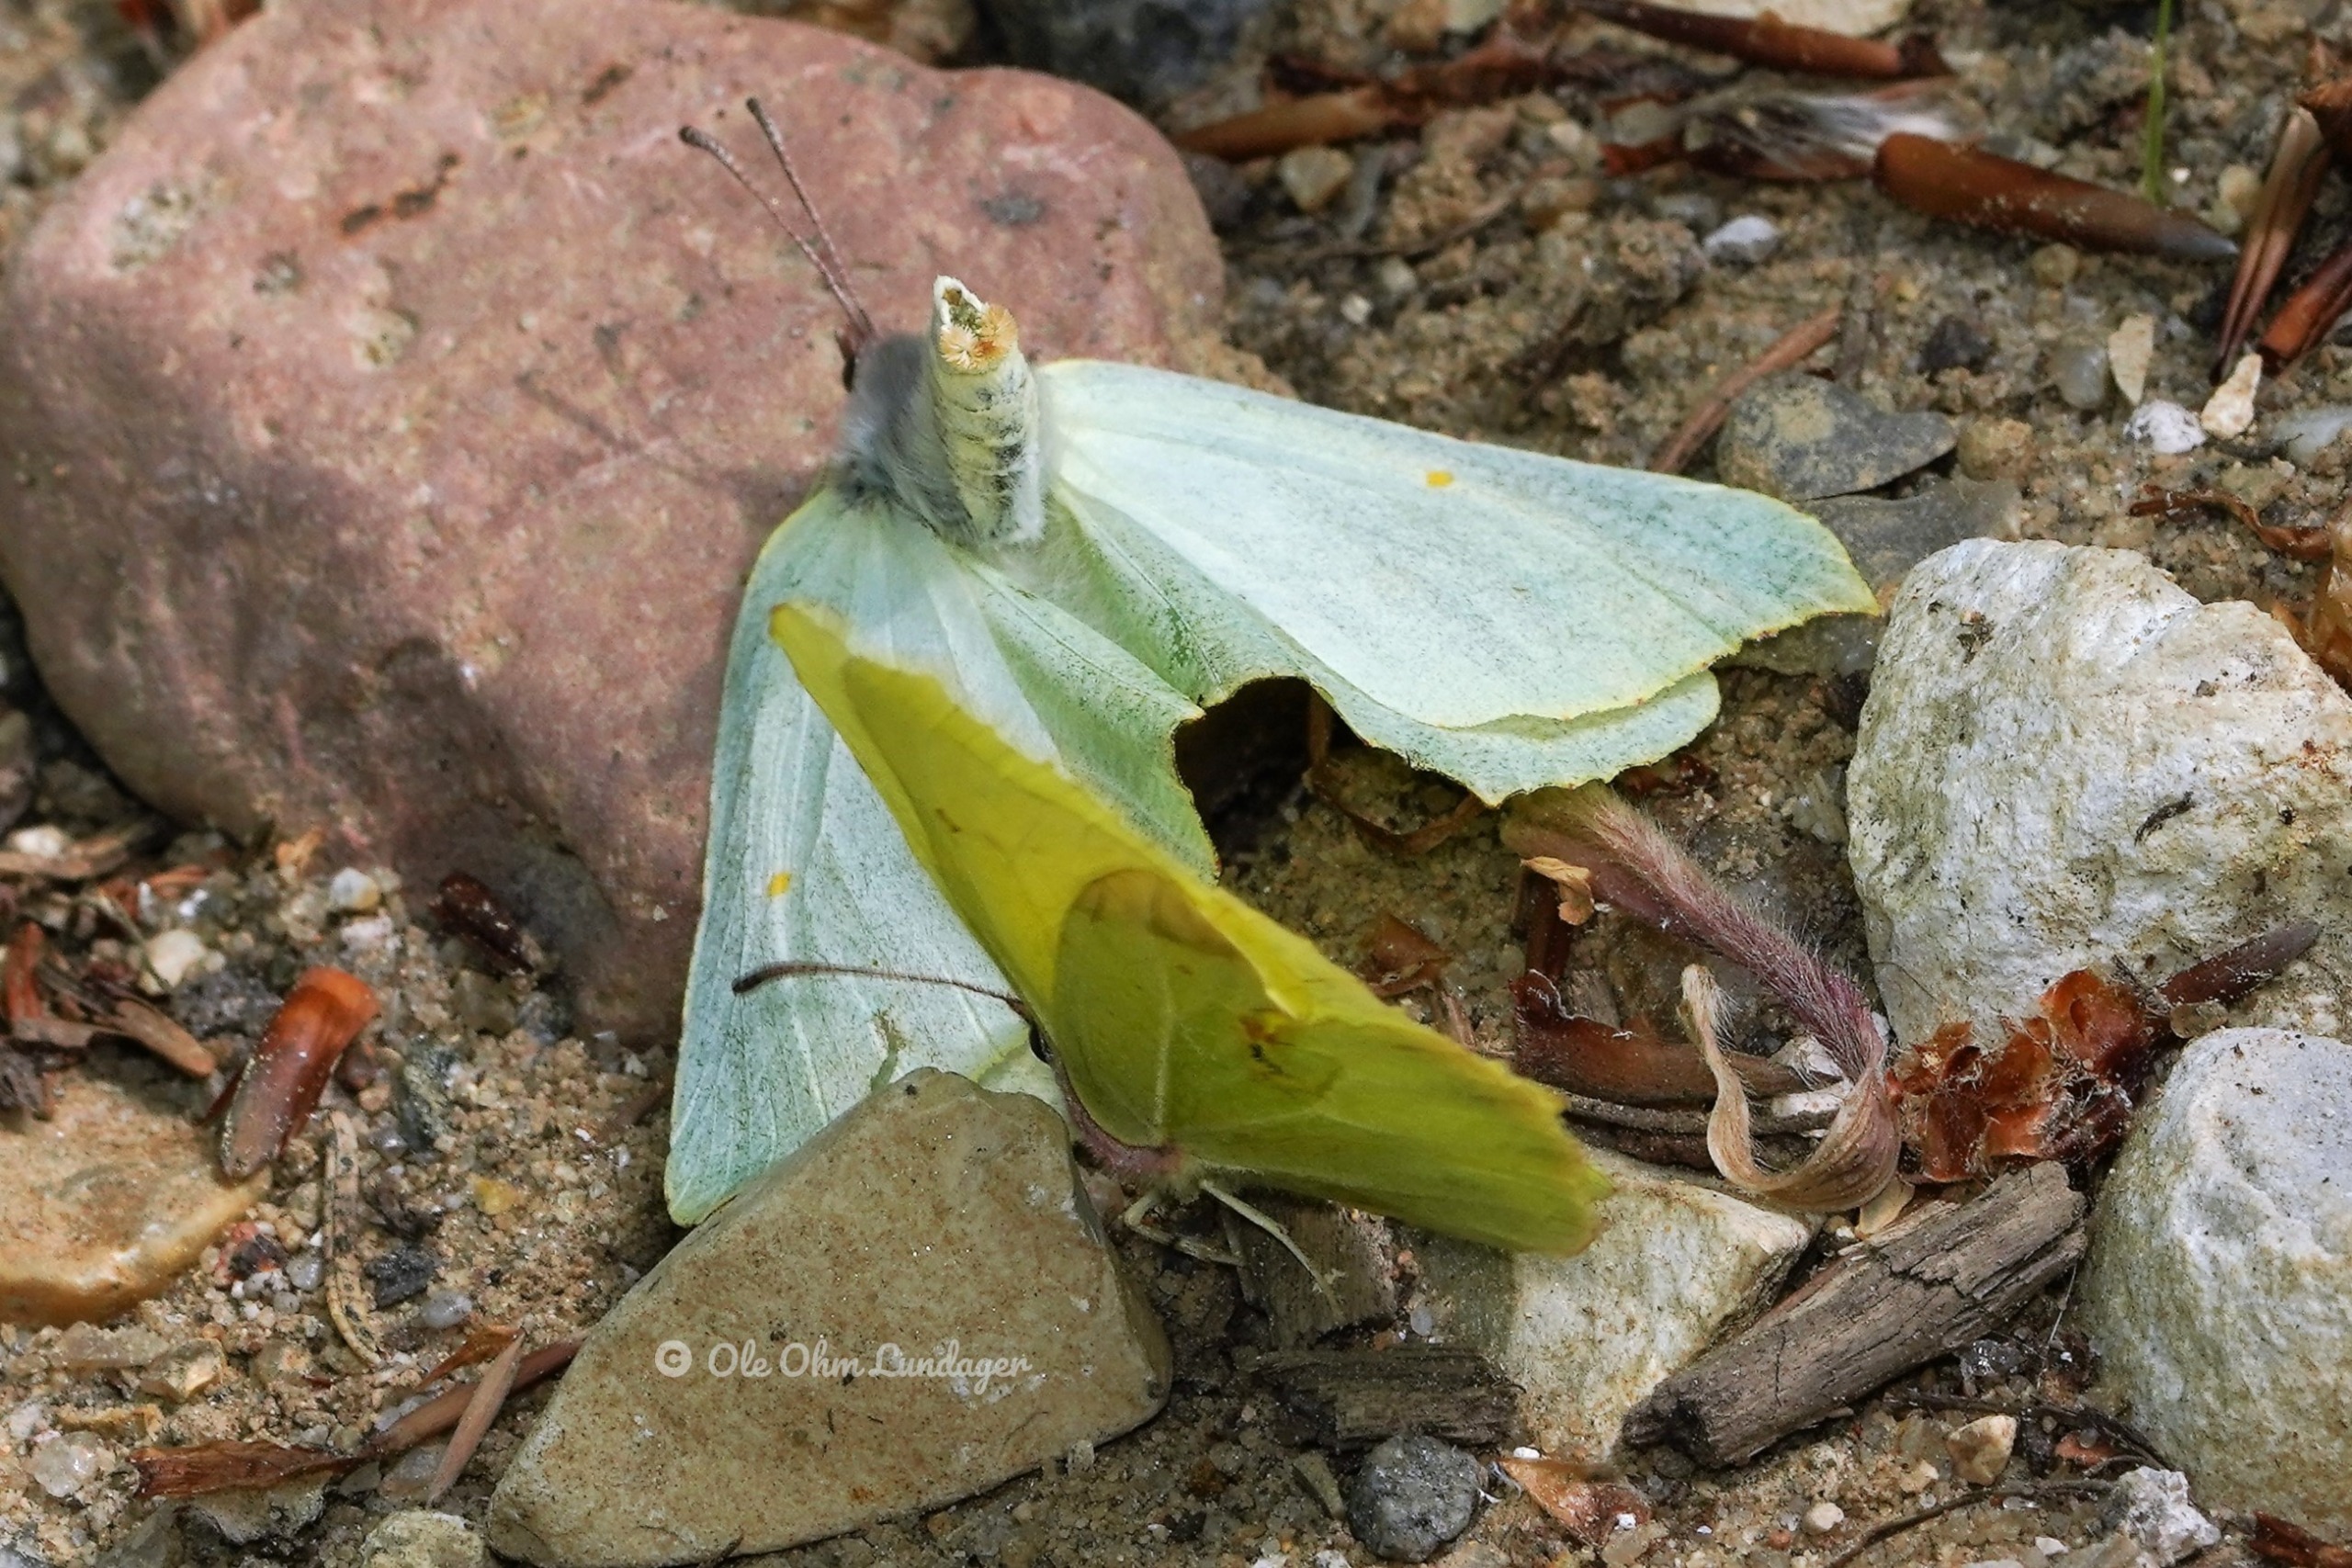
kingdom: Animalia
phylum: Arthropoda
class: Insecta
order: Lepidoptera
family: Pieridae
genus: Gonepteryx
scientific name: Gonepteryx rhamni
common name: Citronsommerfugl
